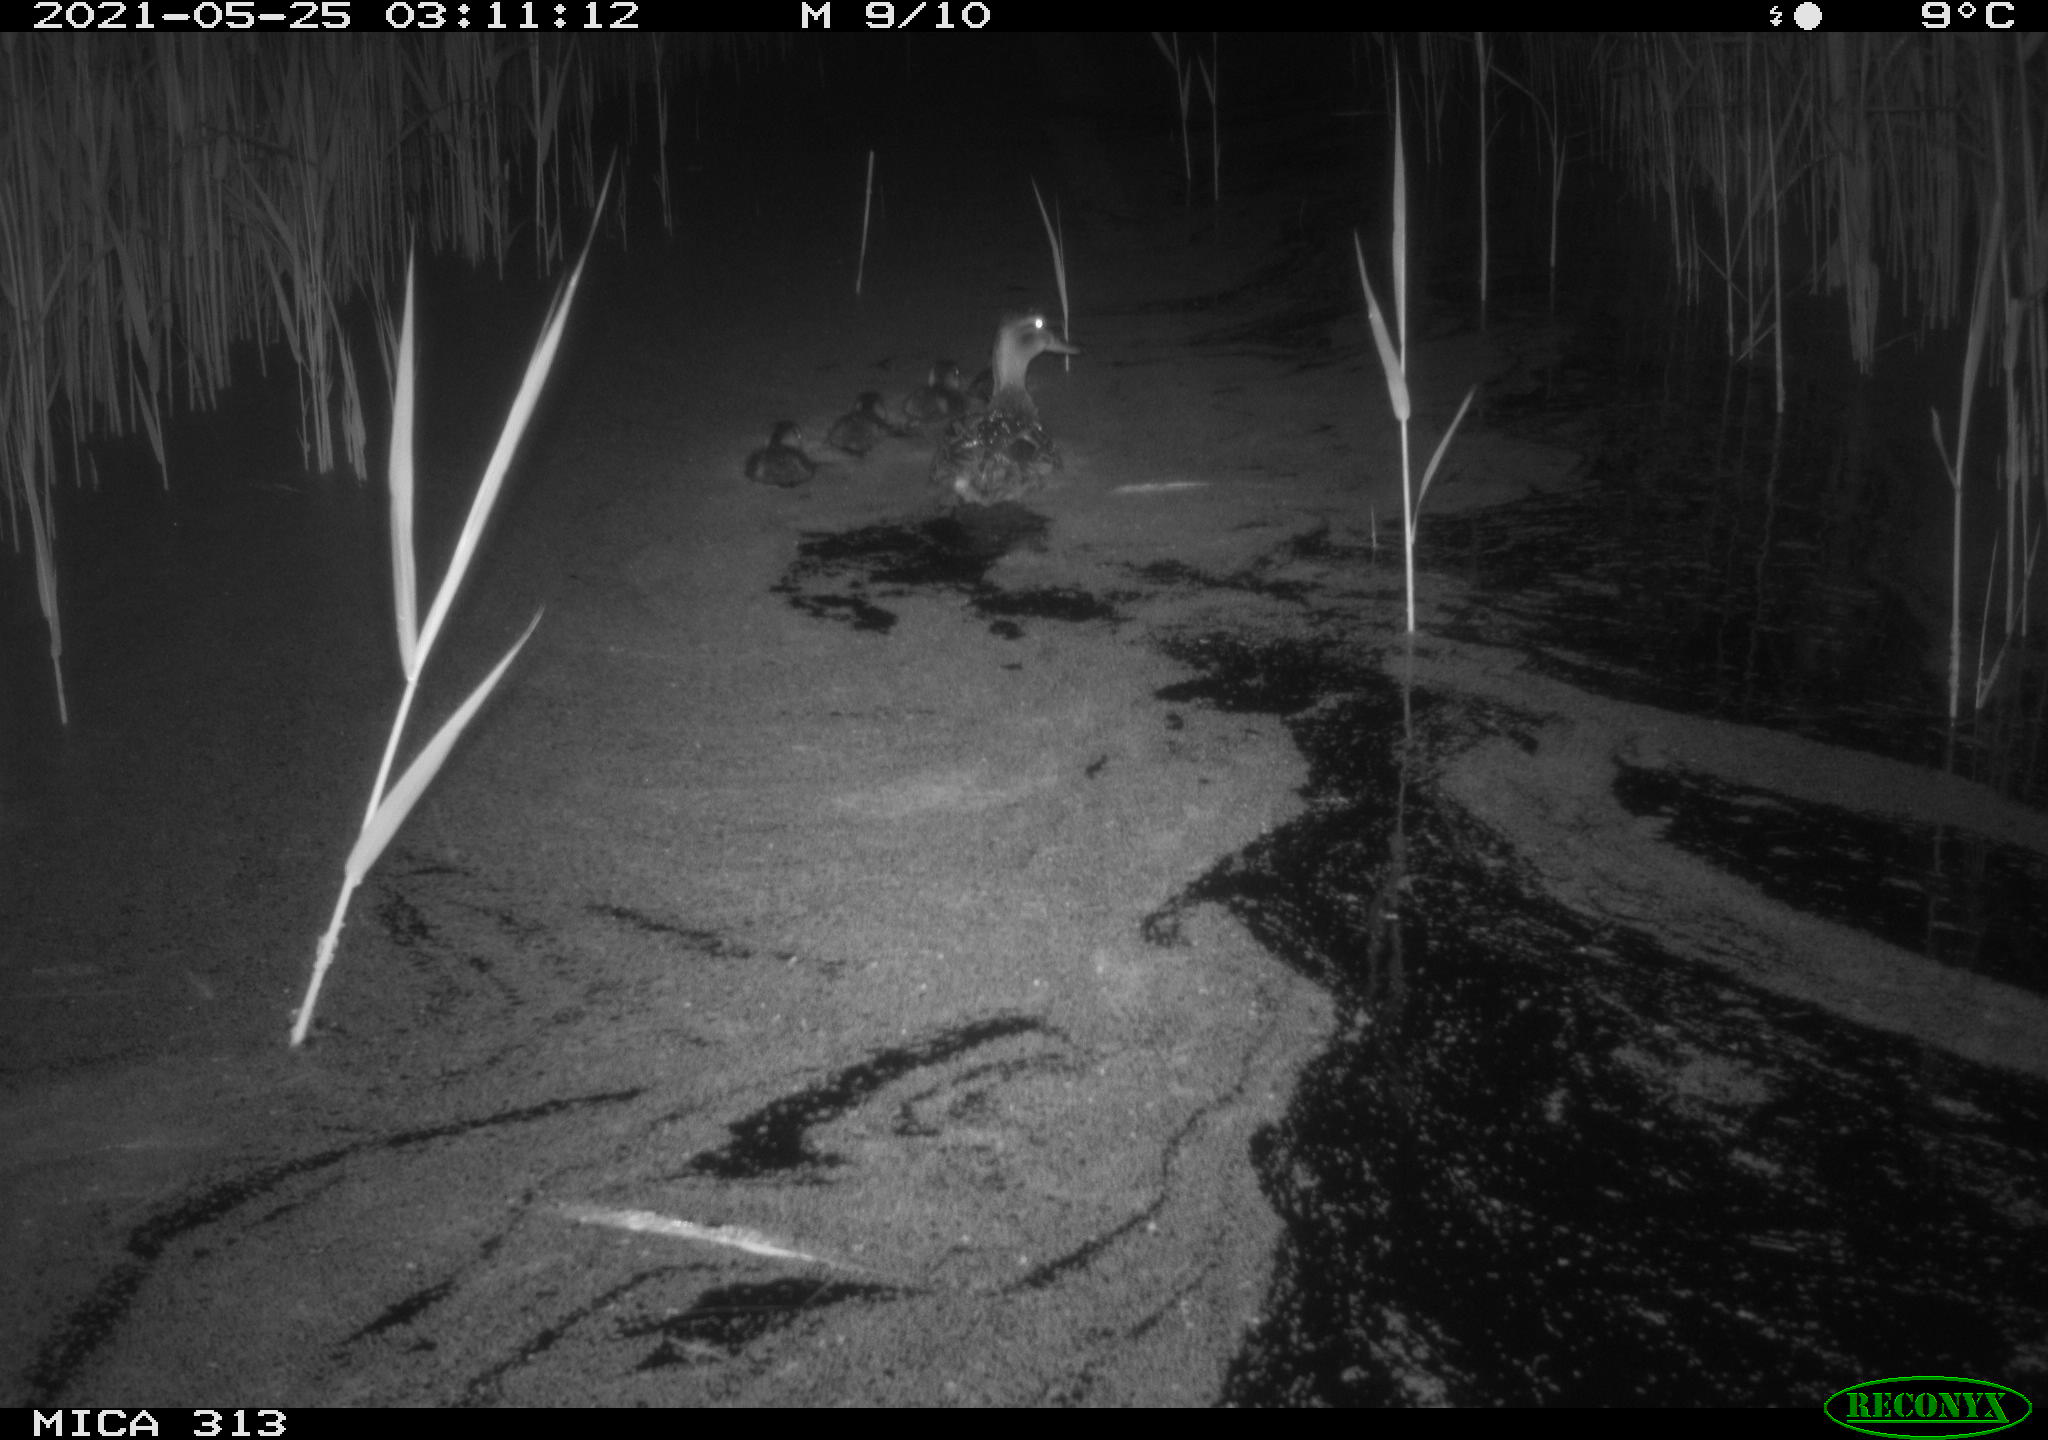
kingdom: Animalia
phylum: Chordata
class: Aves
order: Anseriformes
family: Anatidae
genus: Anas
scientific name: Anas platyrhynchos
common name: Mallard
